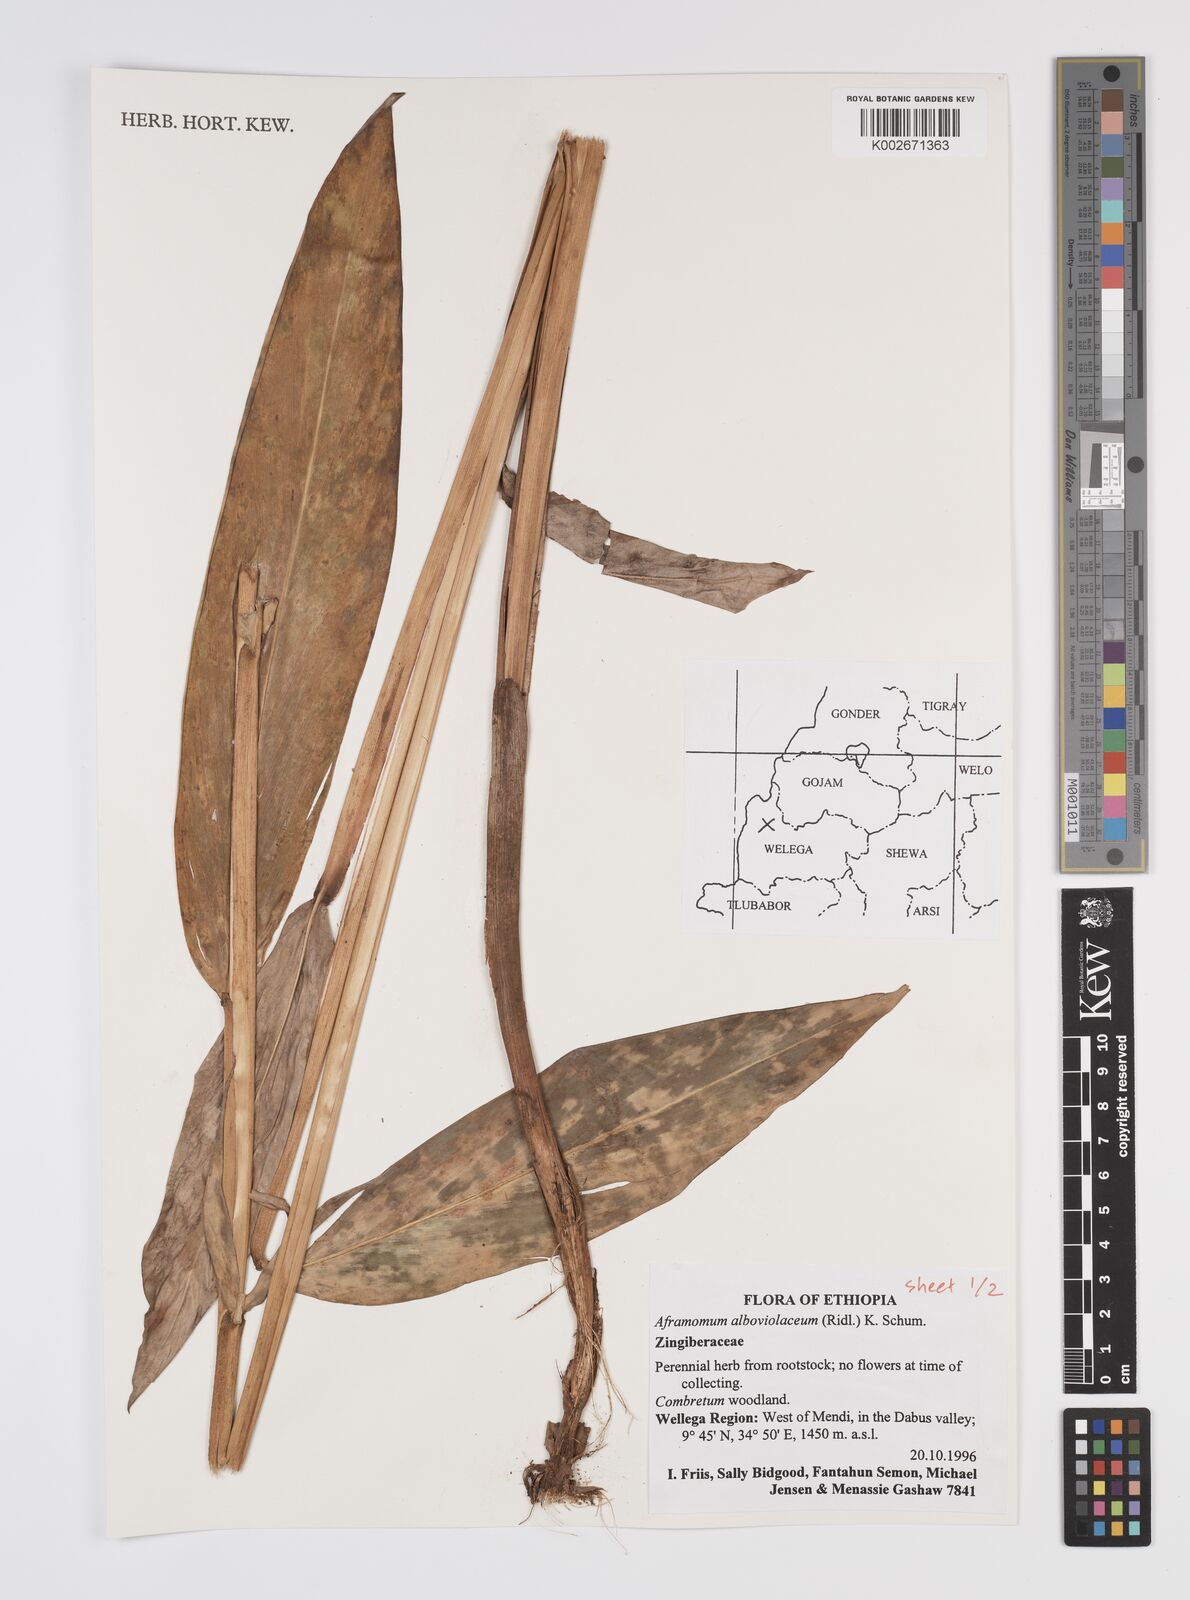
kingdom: Plantae
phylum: Tracheophyta
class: Liliopsida
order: Zingiberales
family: Zingiberaceae
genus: Aframomum
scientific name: Aframomum alboviolaceum
